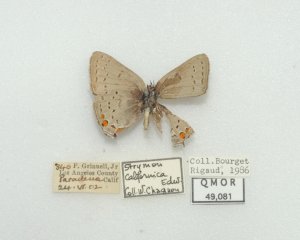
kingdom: Animalia
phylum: Arthropoda
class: Insecta
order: Lepidoptera
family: Lycaenidae
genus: Strymon
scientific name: Strymon acadica
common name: California Hairstreak
